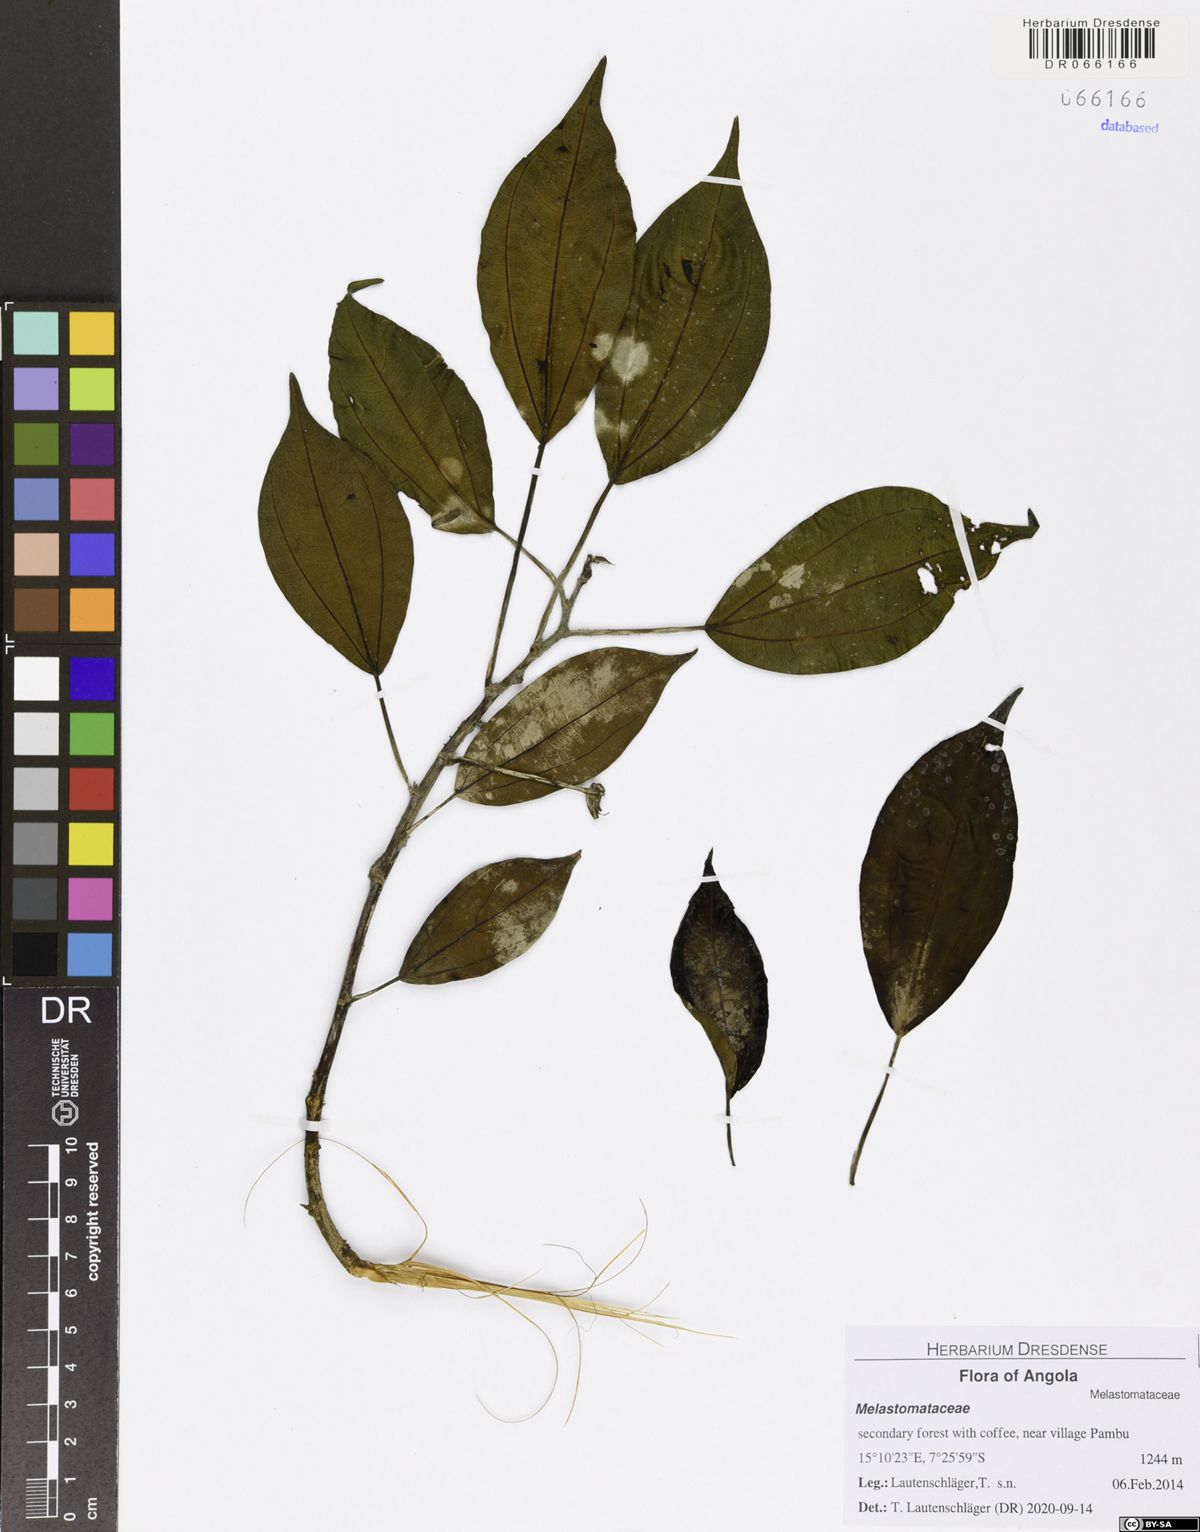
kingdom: Plantae
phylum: Tracheophyta
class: Magnoliopsida
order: Myrtales
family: Melastomataceae
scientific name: Melastomataceae
